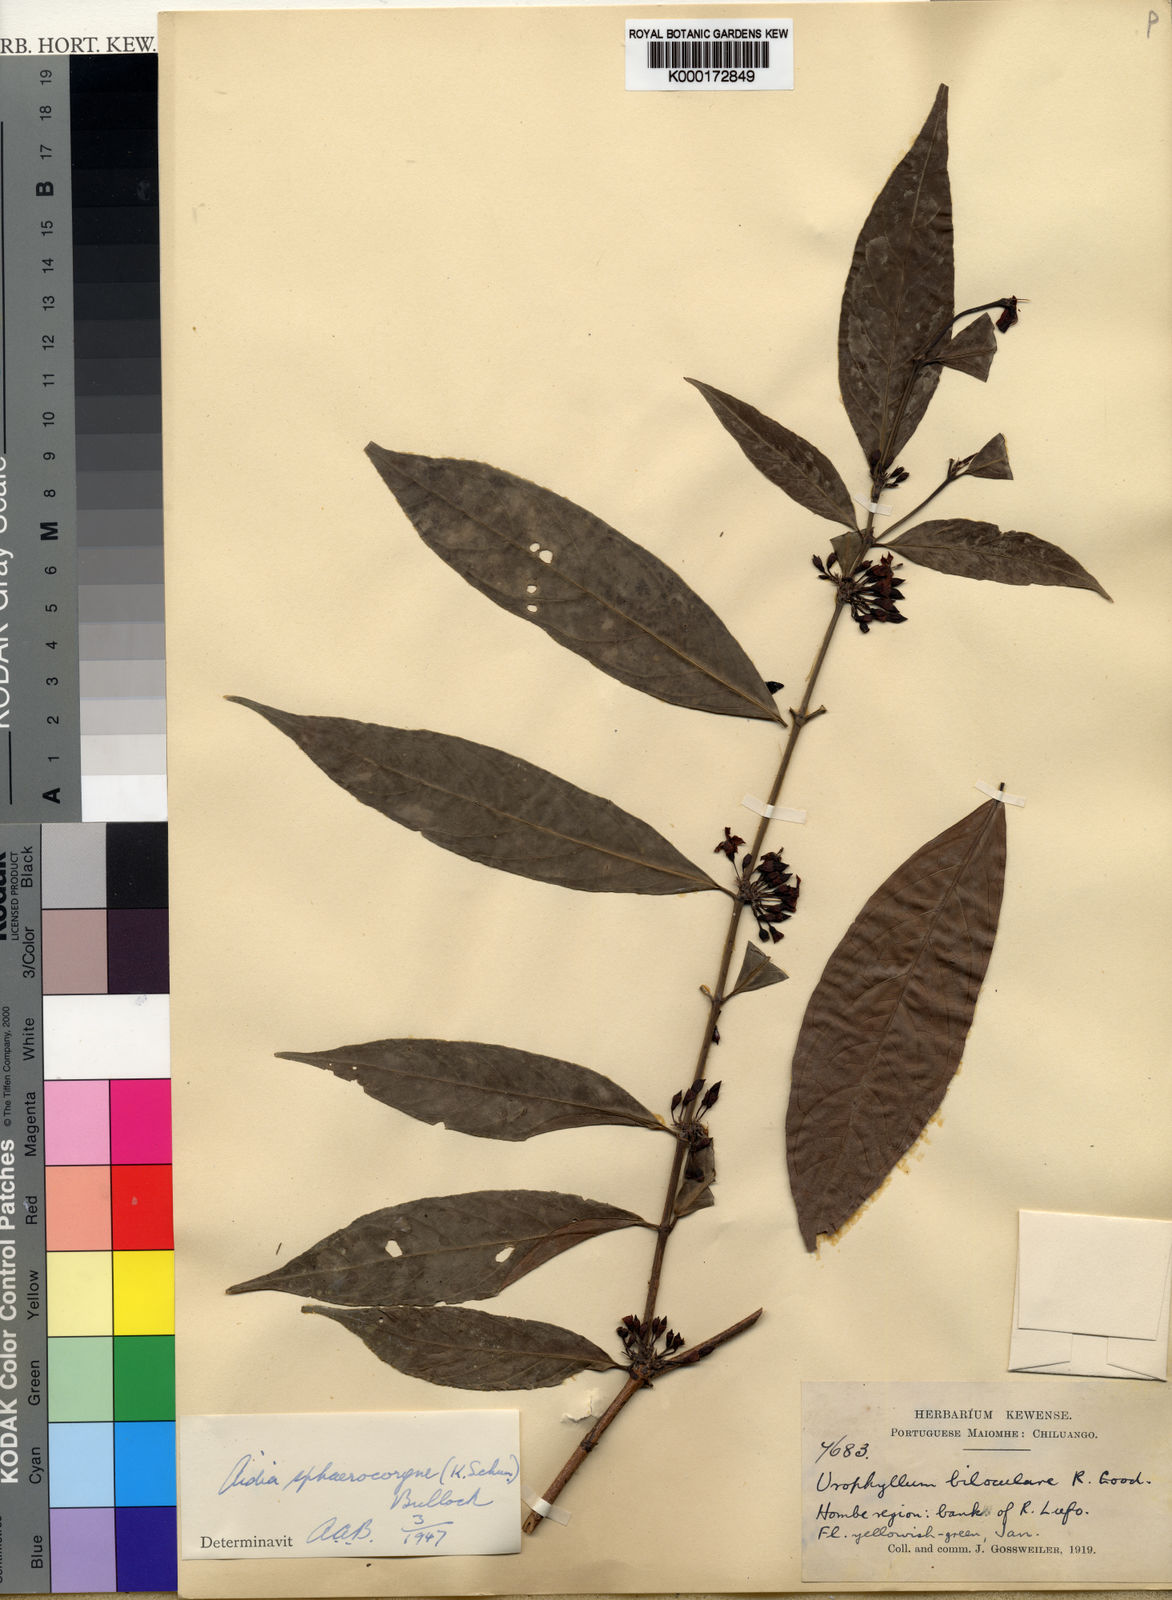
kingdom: Plantae
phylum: Tracheophyta
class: Magnoliopsida
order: Gentianales
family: Rubiaceae
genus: Aidia
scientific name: Aidia
